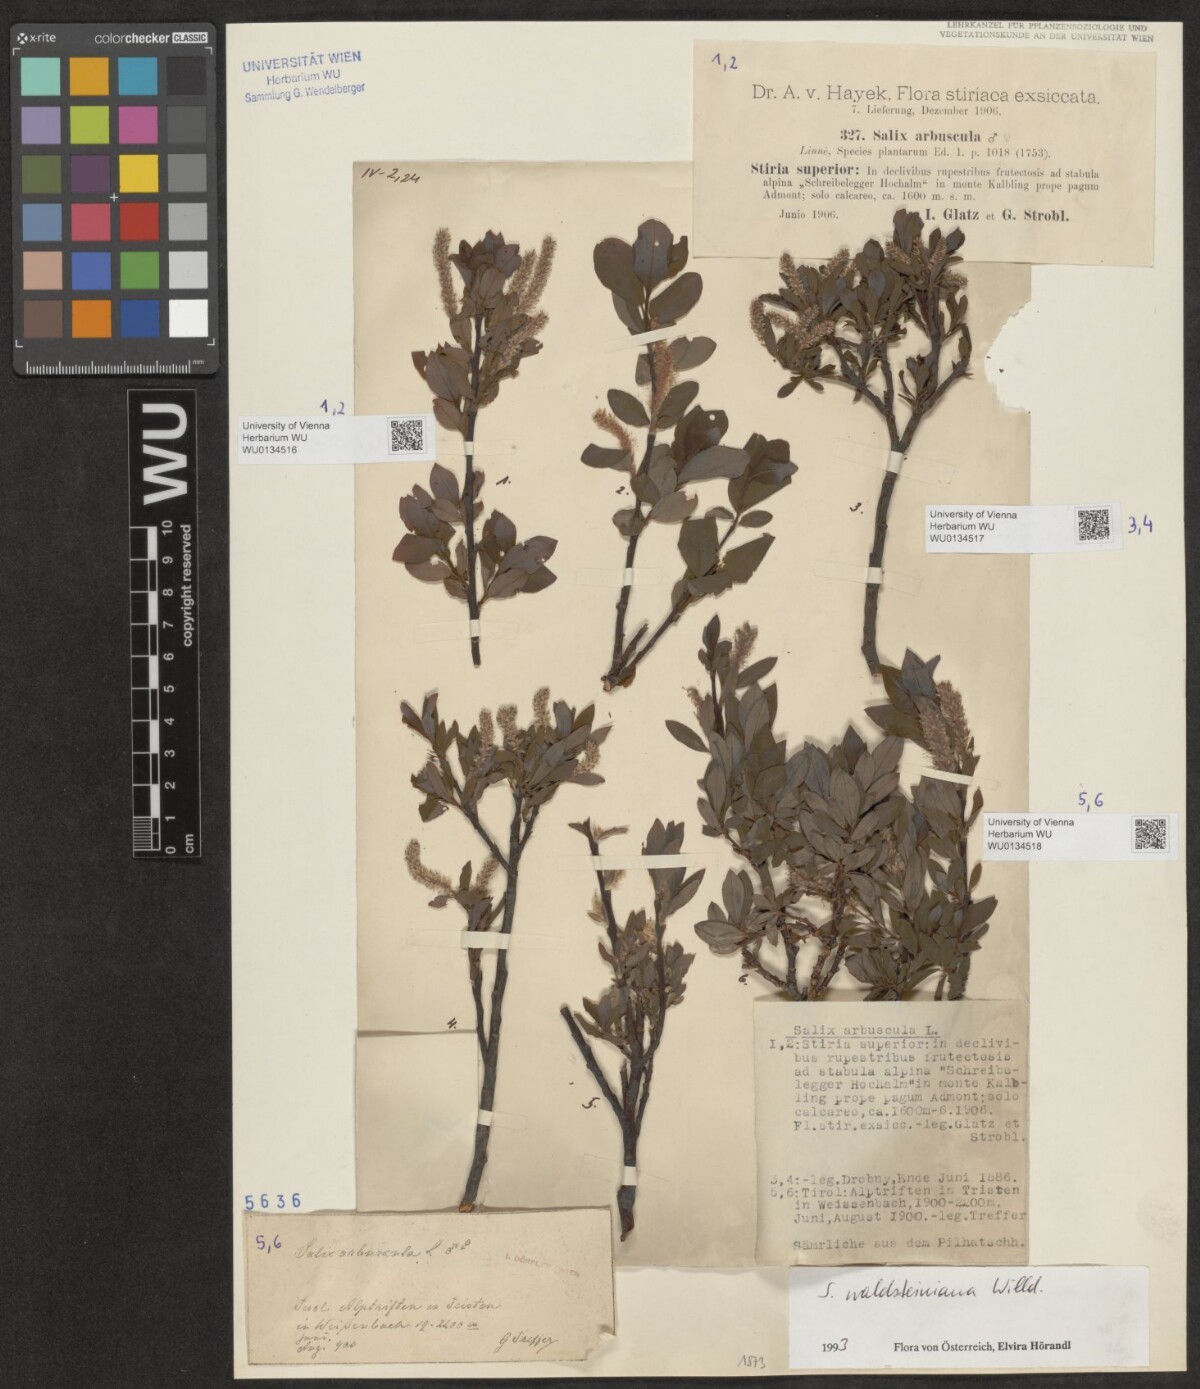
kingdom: Plantae
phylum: Tracheophyta
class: Magnoliopsida
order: Malpighiales
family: Salicaceae
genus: Salix
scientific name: Salix waldsteiniana
